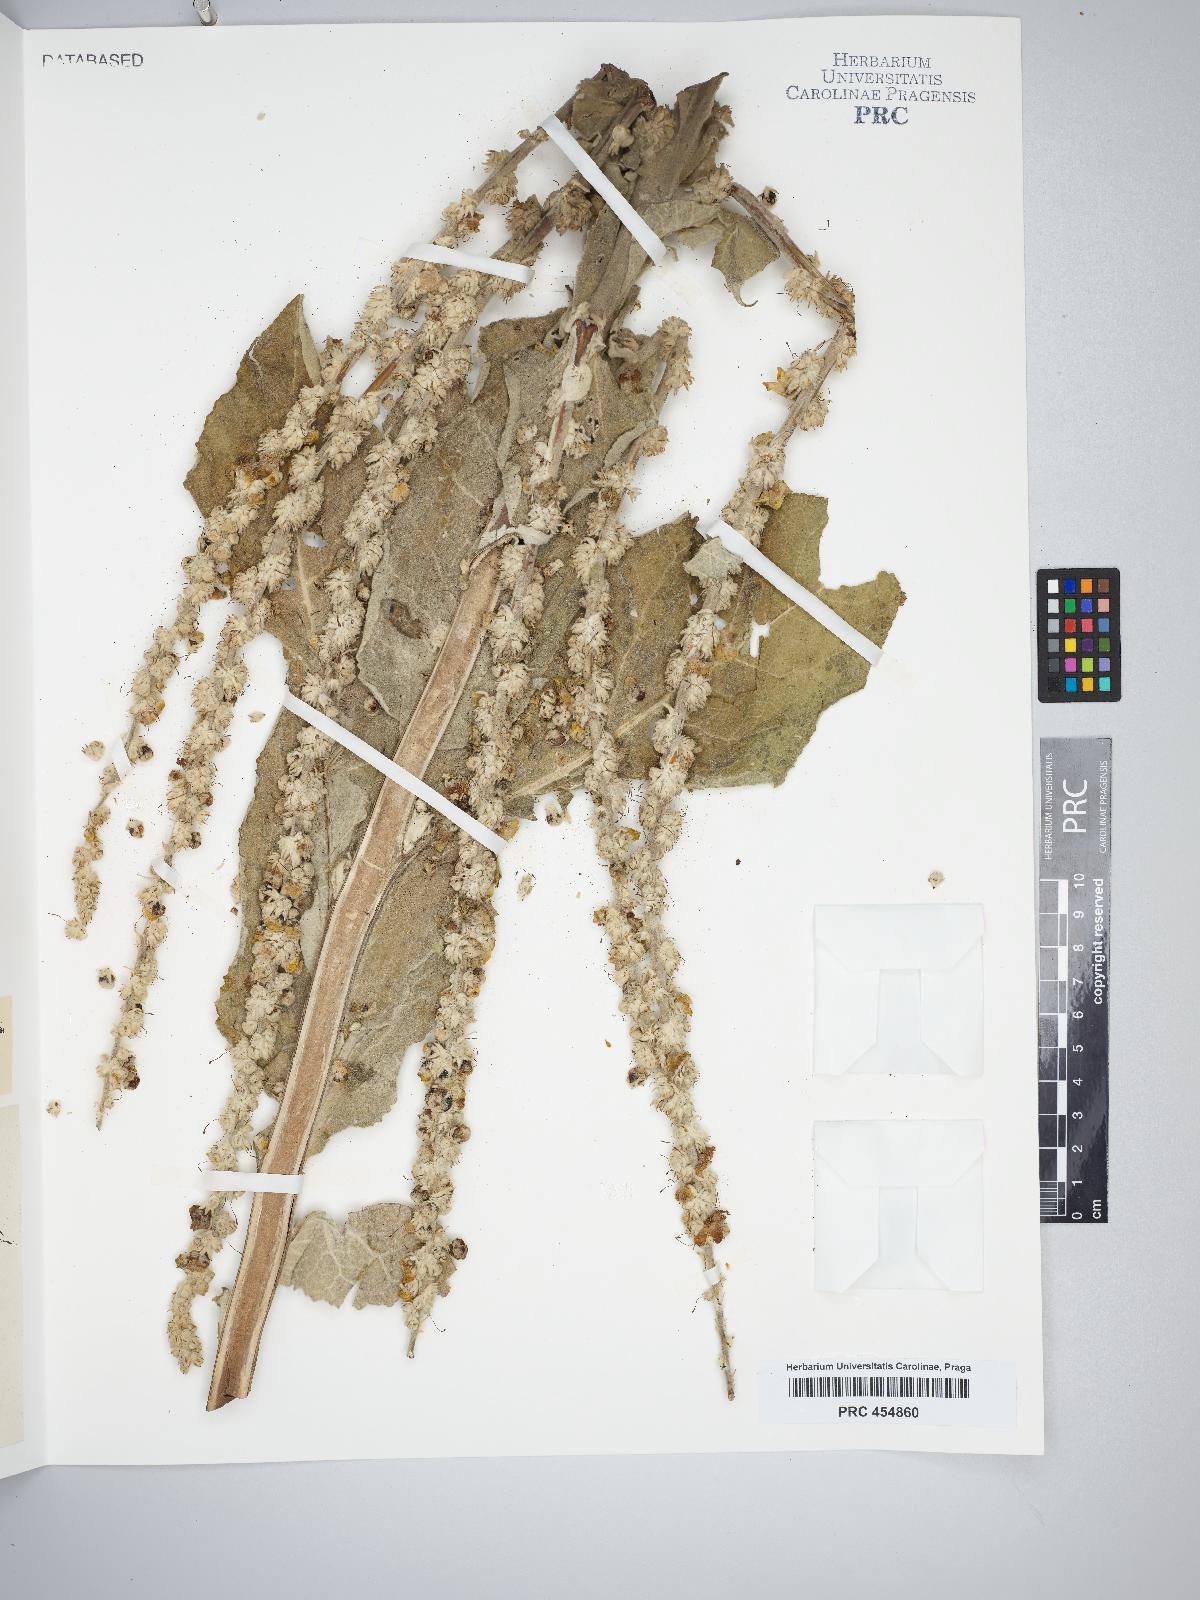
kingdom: Plantae
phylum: Tracheophyta
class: Magnoliopsida
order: Lamiales
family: Scrophulariaceae
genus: Verbascum
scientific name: Verbascum gintlii
